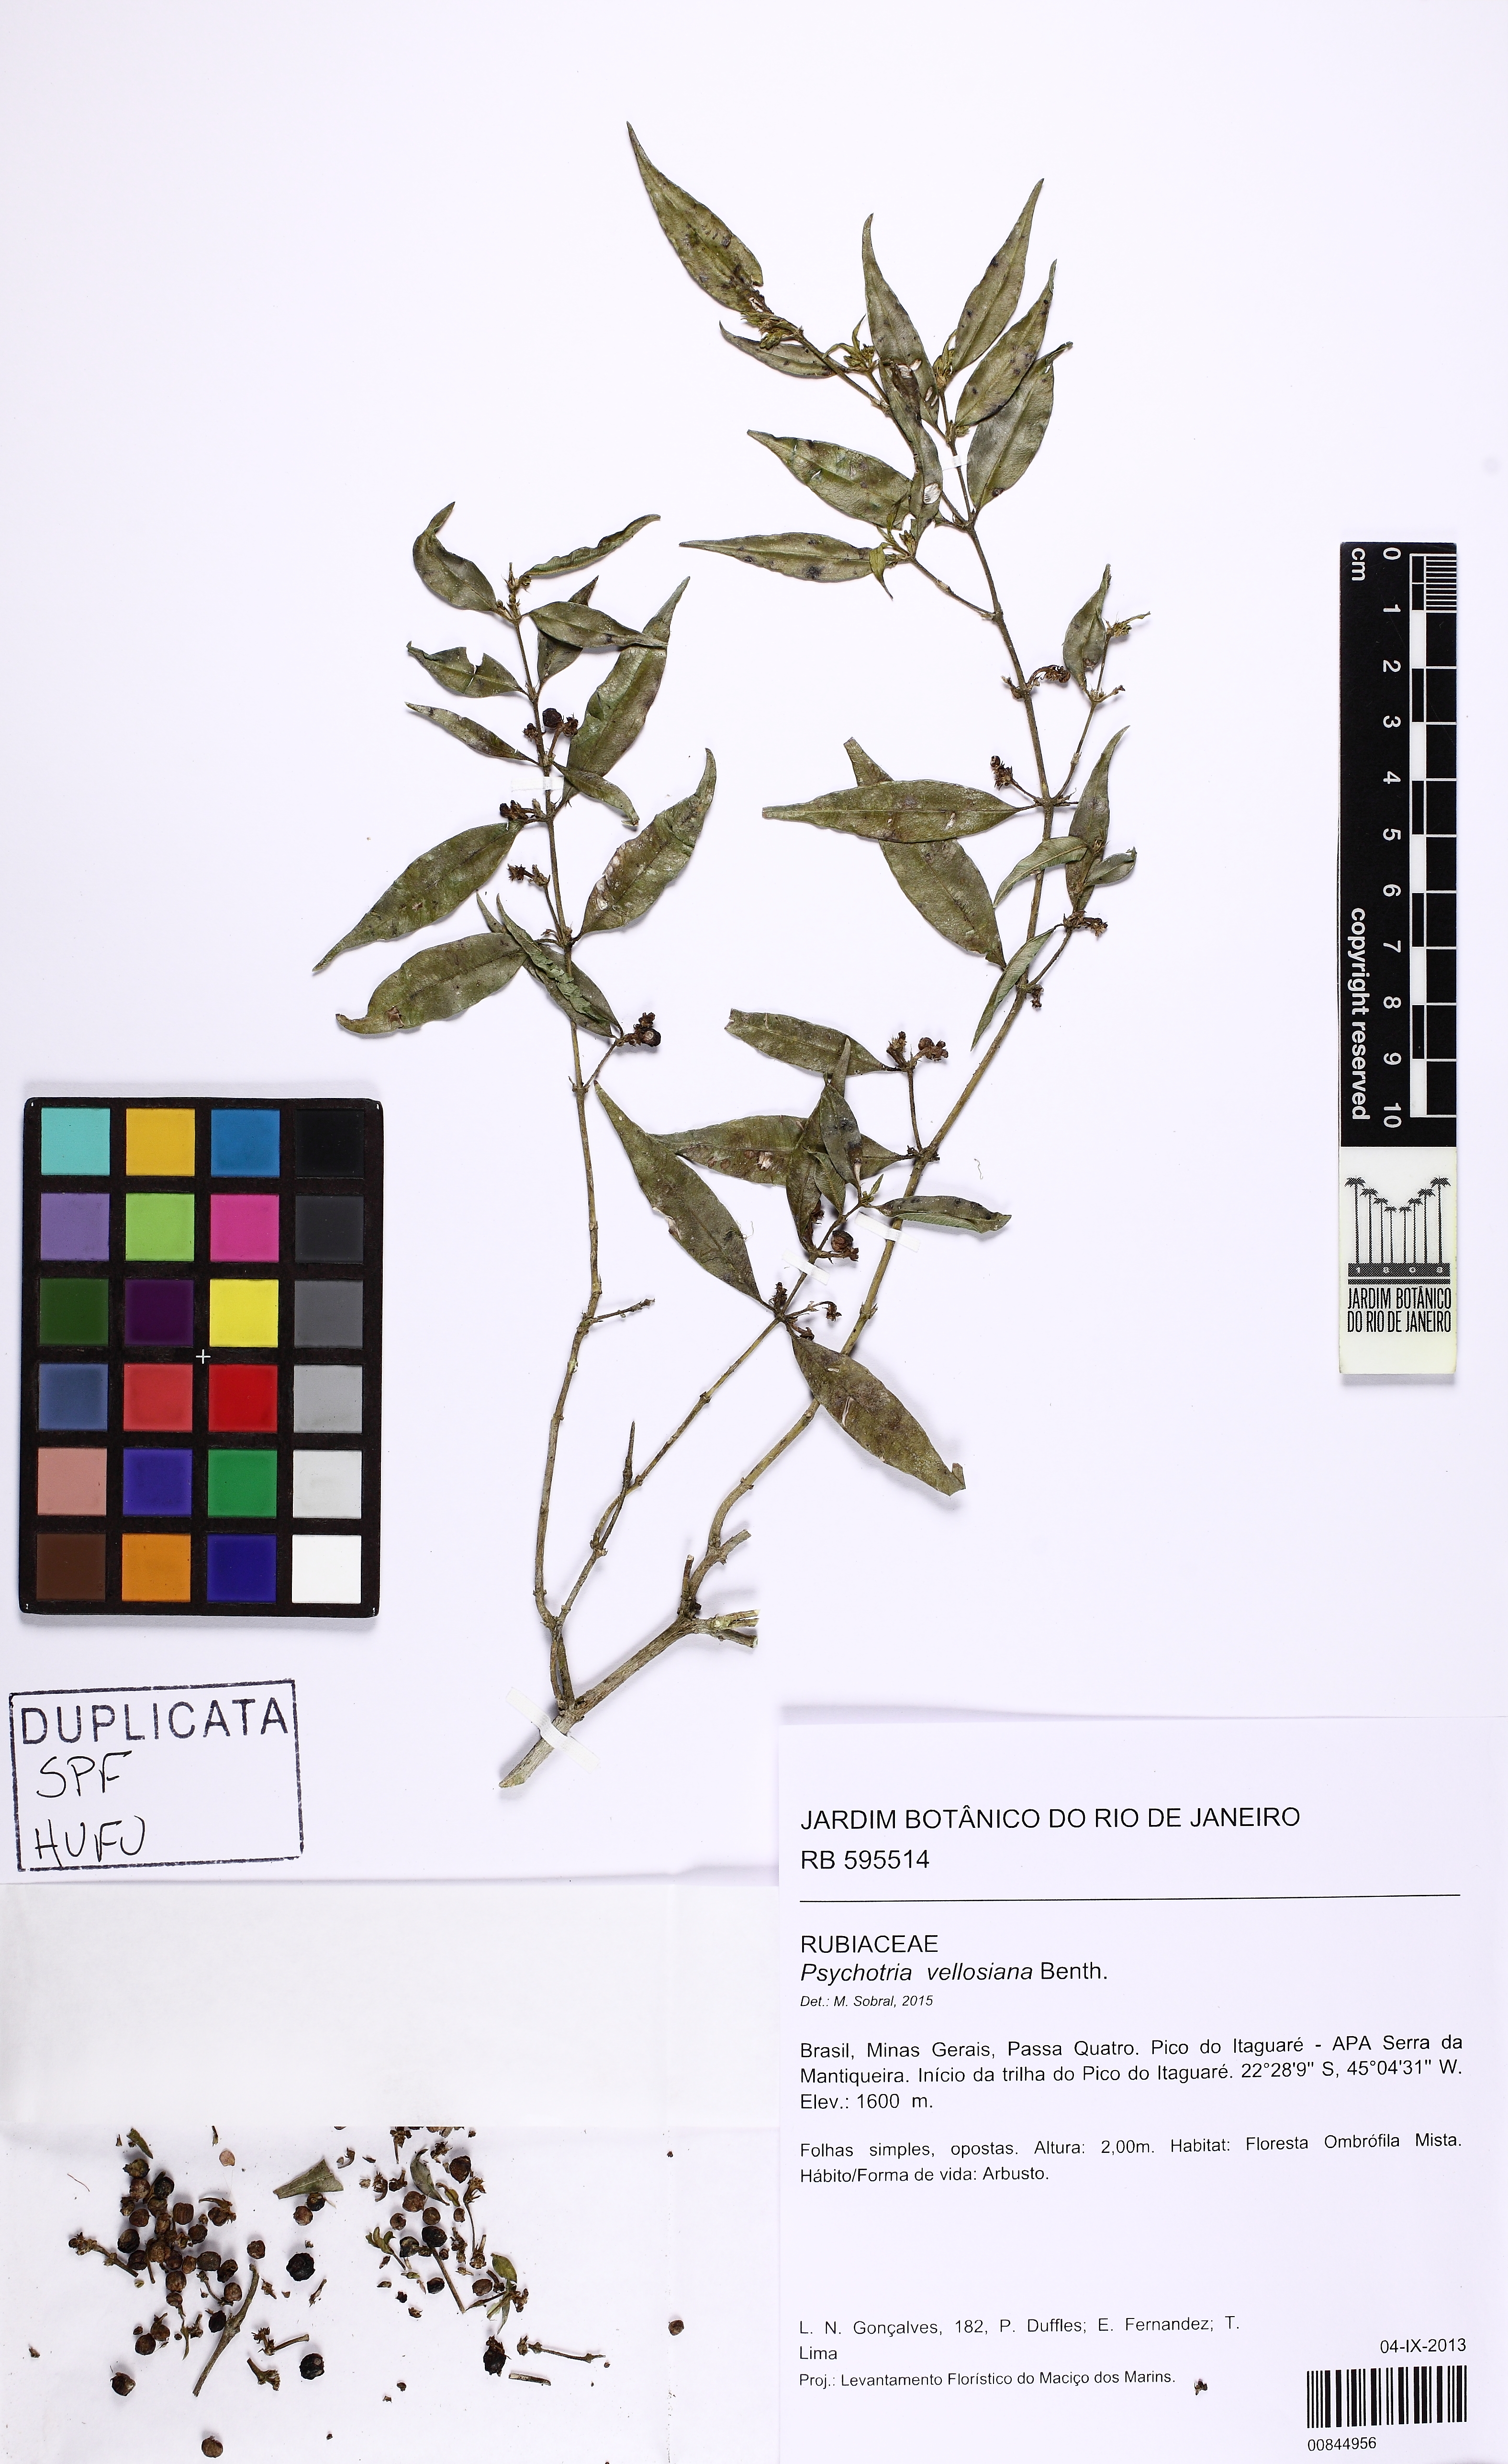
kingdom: Plantae
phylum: Tracheophyta
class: Magnoliopsida
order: Gentianales
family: Rubiaceae
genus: Palicourea
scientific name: Palicourea sessilis
